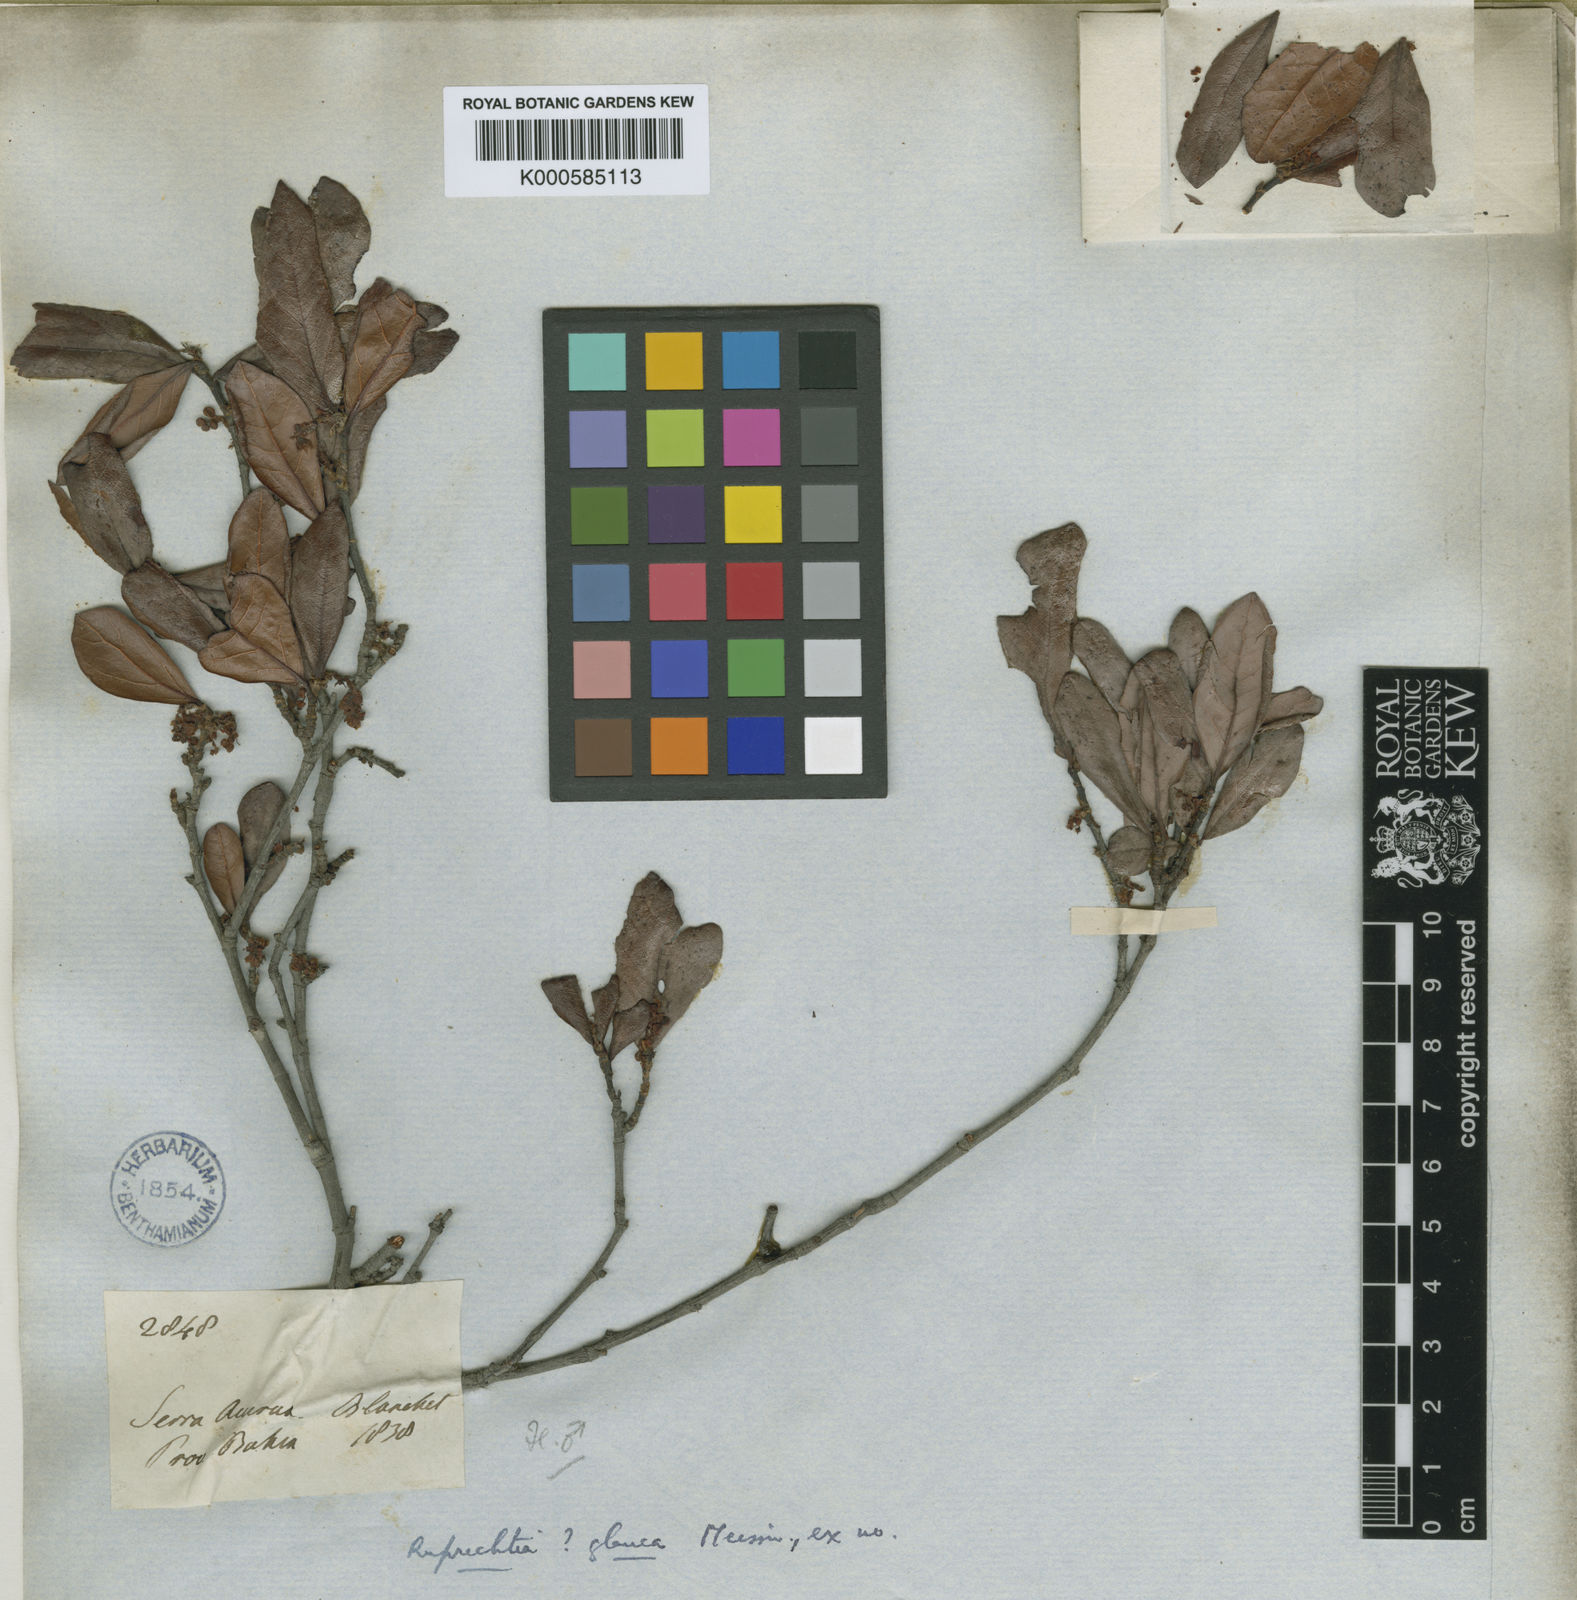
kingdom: Plantae
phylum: Tracheophyta
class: Magnoliopsida
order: Caryophyllales
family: Polygonaceae
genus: Ruprechtia
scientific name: Ruprechtia laxiflora
